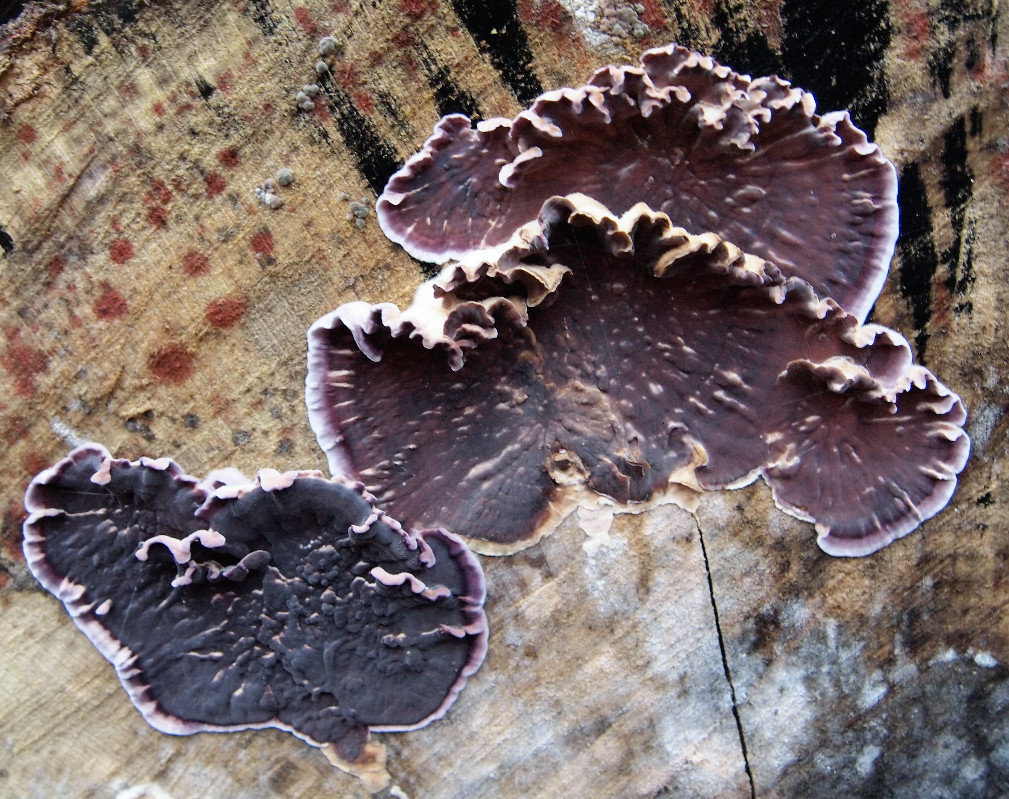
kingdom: Fungi
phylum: Basidiomycota
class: Agaricomycetes
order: Agaricales
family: Cyphellaceae
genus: Chondrostereum
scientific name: Chondrostereum purpureum
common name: purpurlædersvamp
